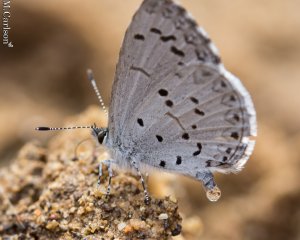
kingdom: Animalia
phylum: Arthropoda
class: Insecta
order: Lepidoptera
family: Lycaenidae
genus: Celastrina
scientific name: Celastrina ladon
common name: Spring Azure
